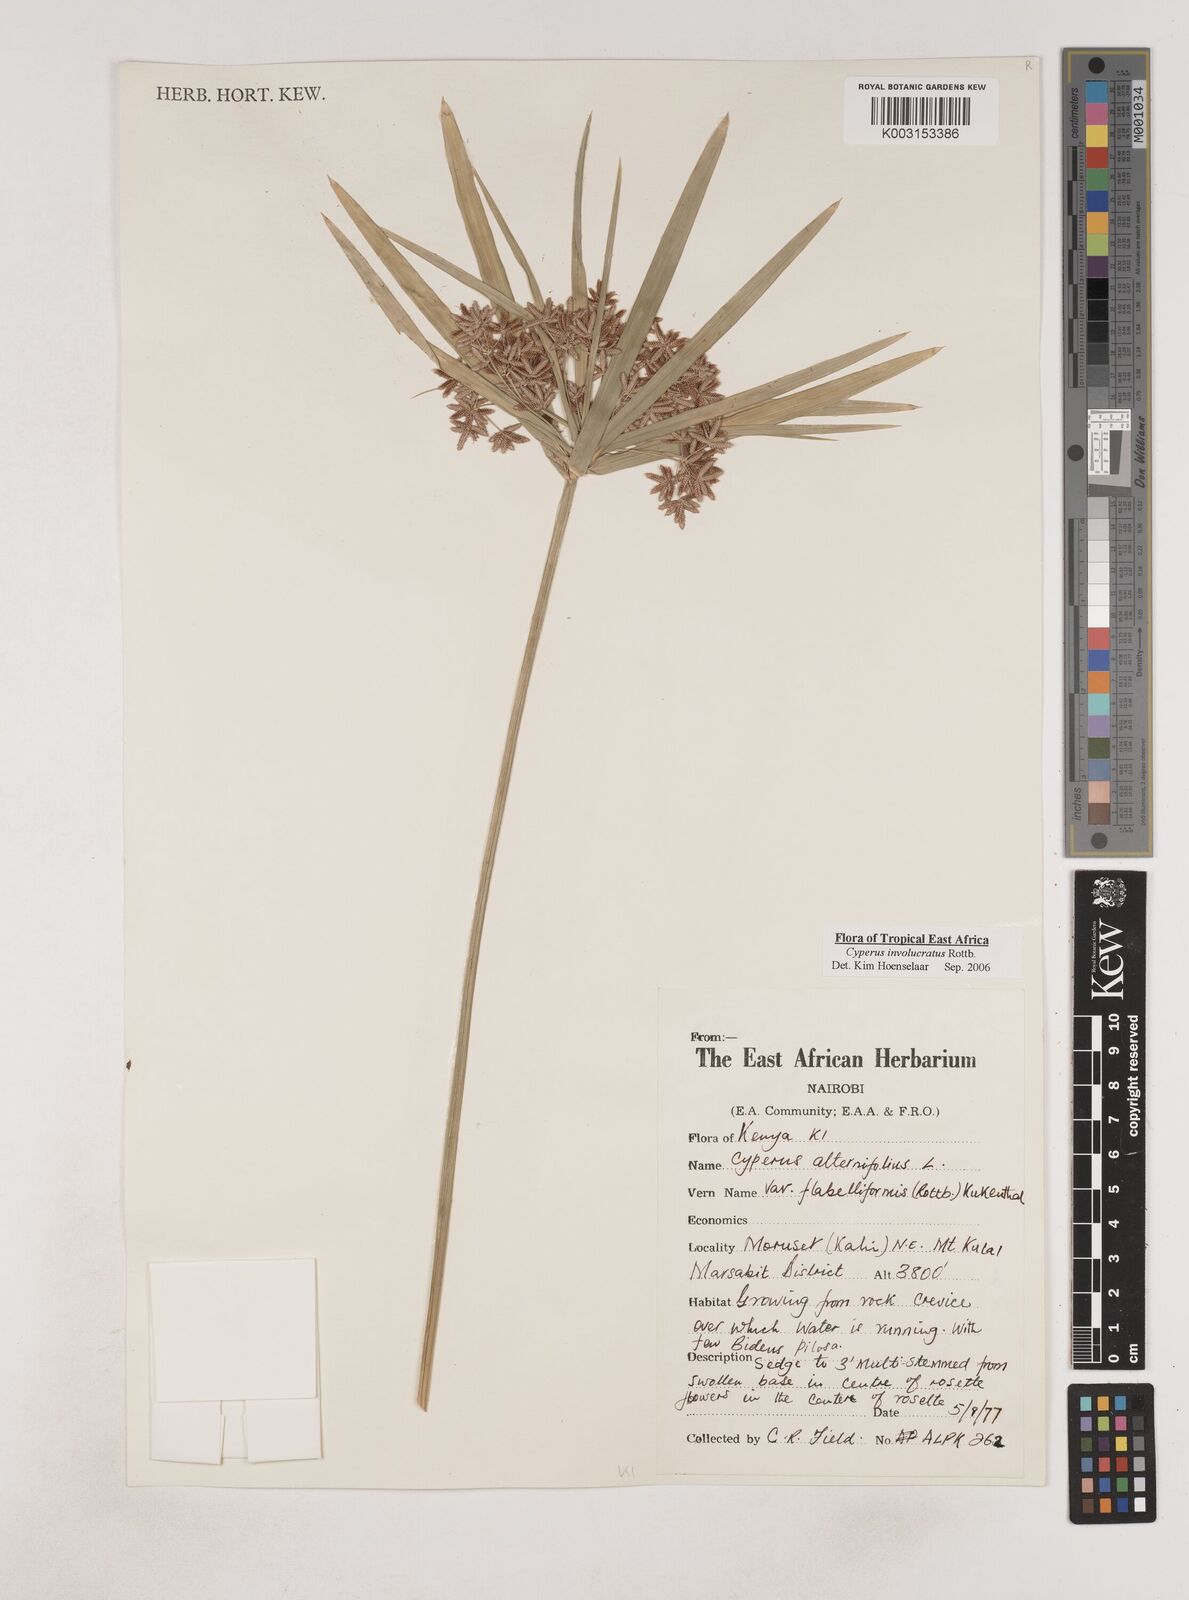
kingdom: Plantae
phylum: Tracheophyta
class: Liliopsida
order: Poales
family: Cyperaceae
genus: Cyperus
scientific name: Cyperus alternifolius
